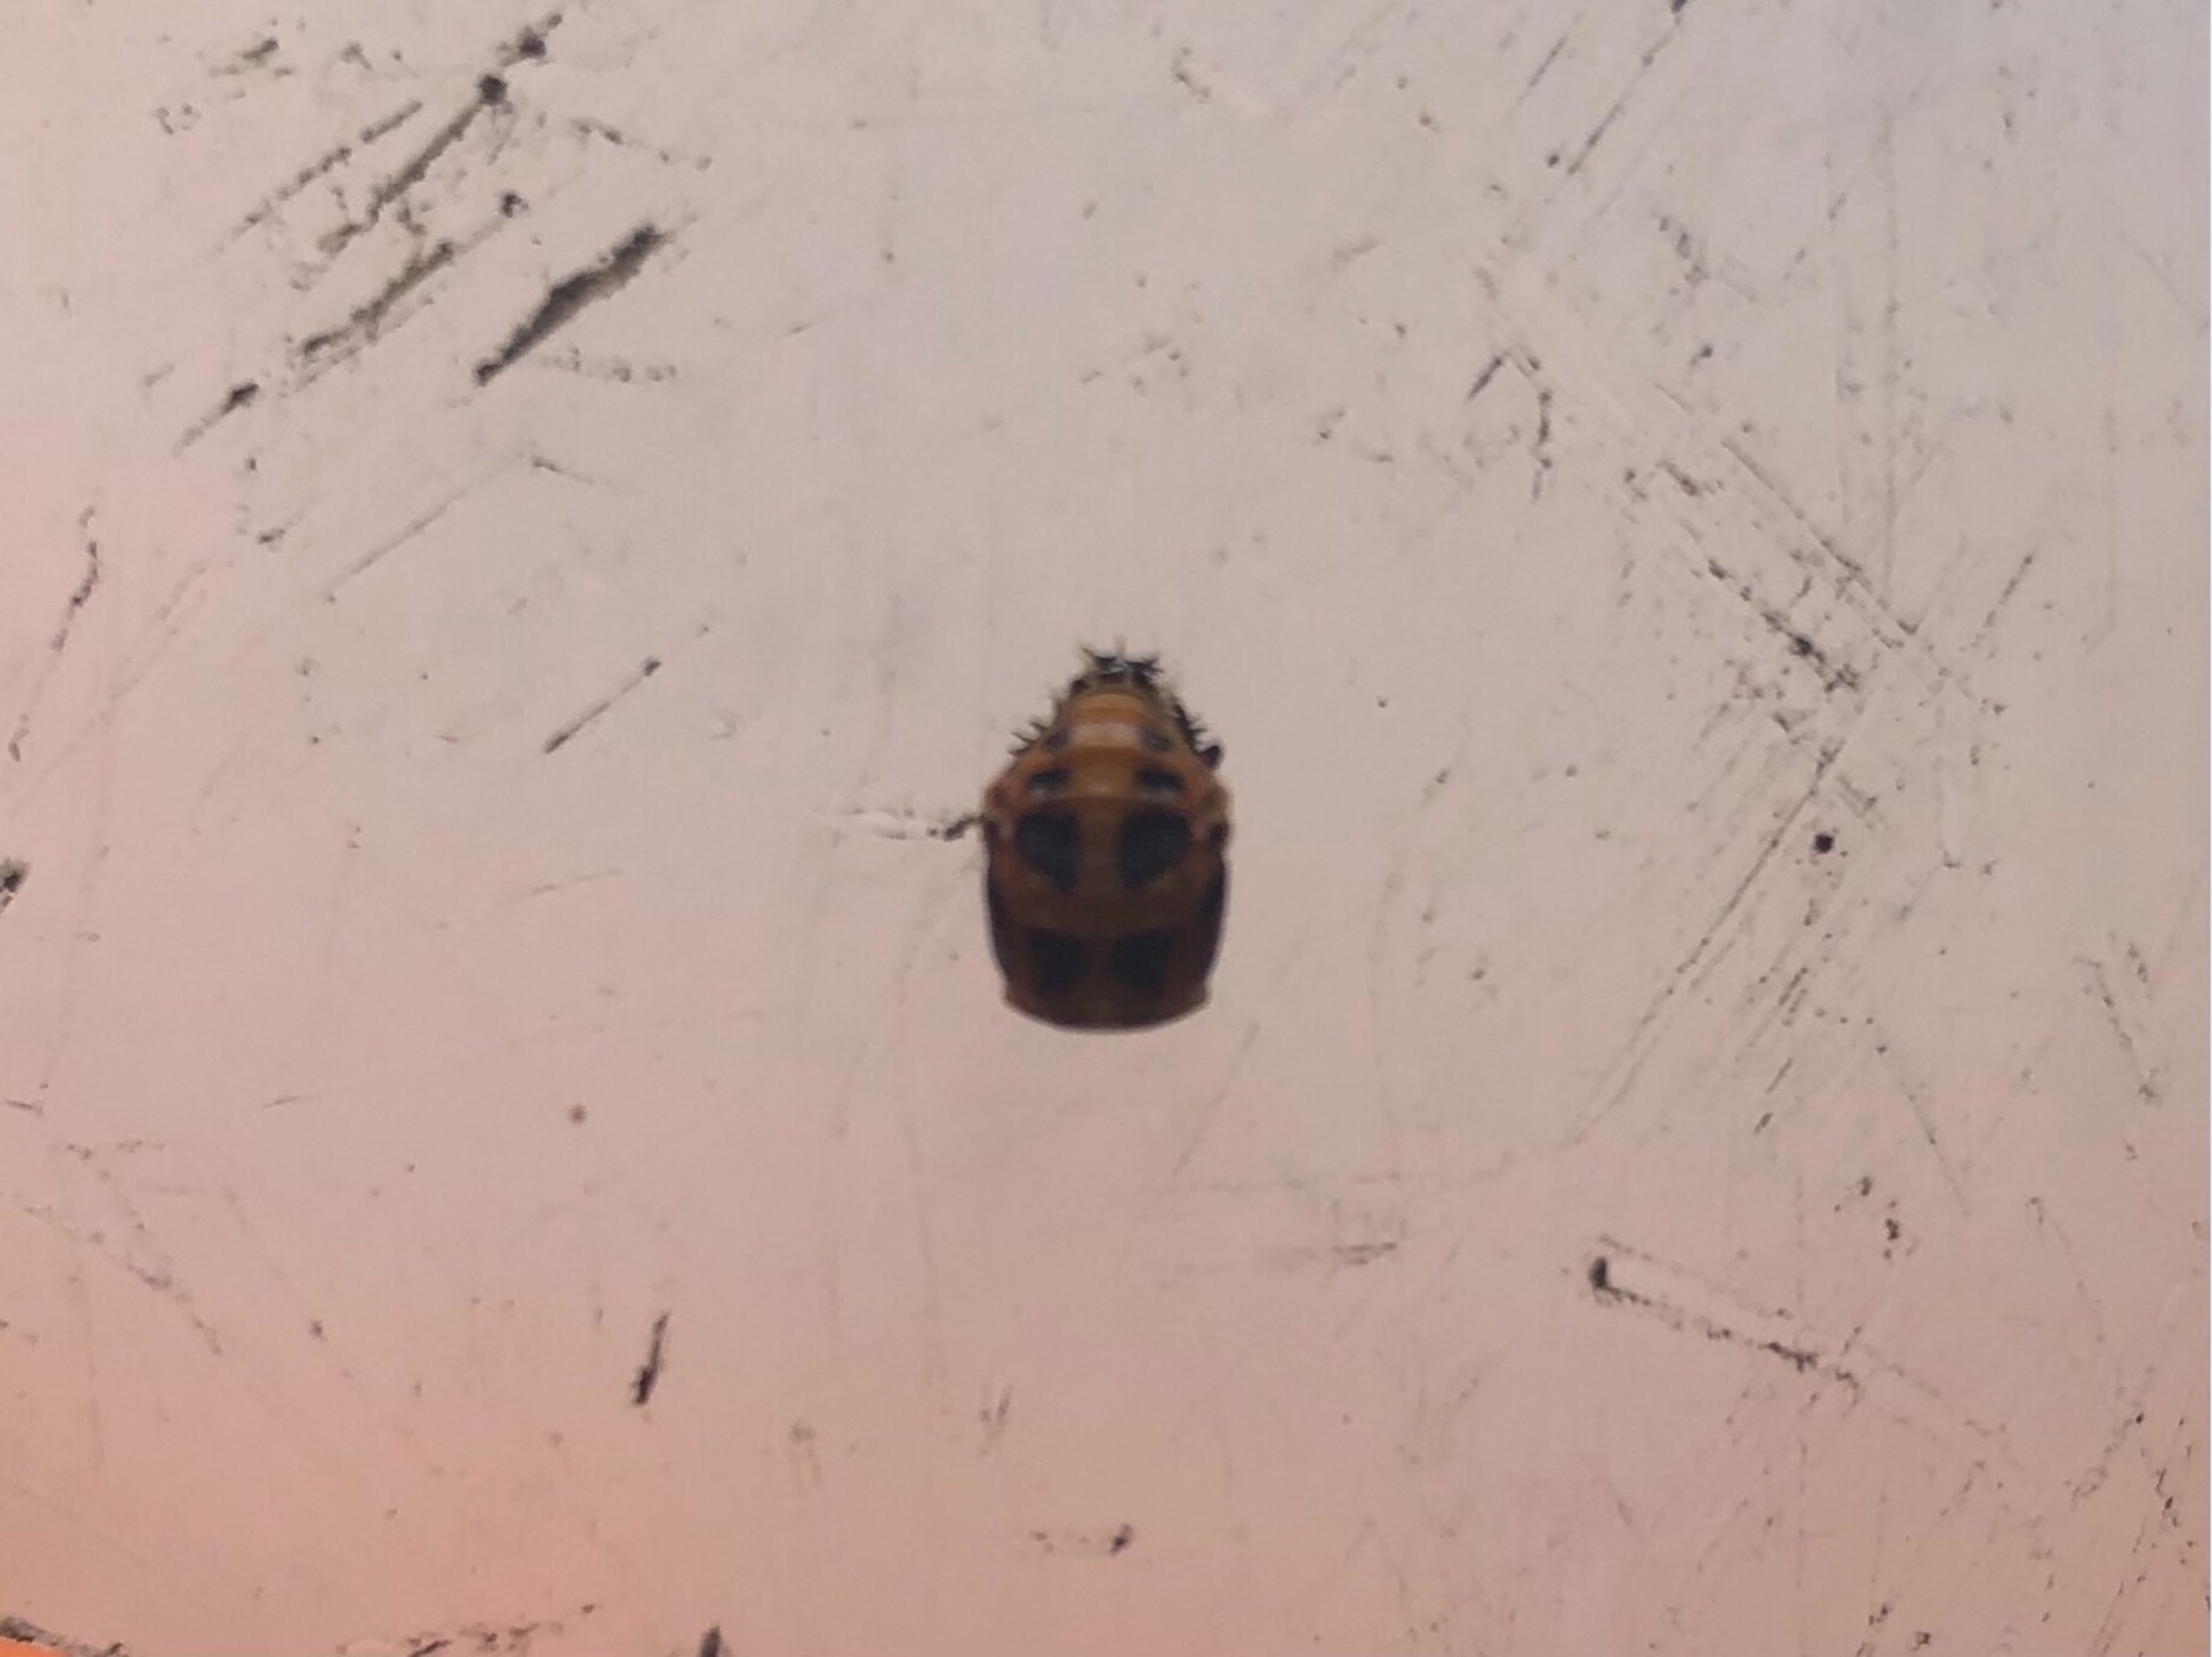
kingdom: Animalia
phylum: Arthropoda
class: Insecta
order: Coleoptera
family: Coccinellidae
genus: Harmonia
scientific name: Harmonia axyridis
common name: Harlekinmariehøne
